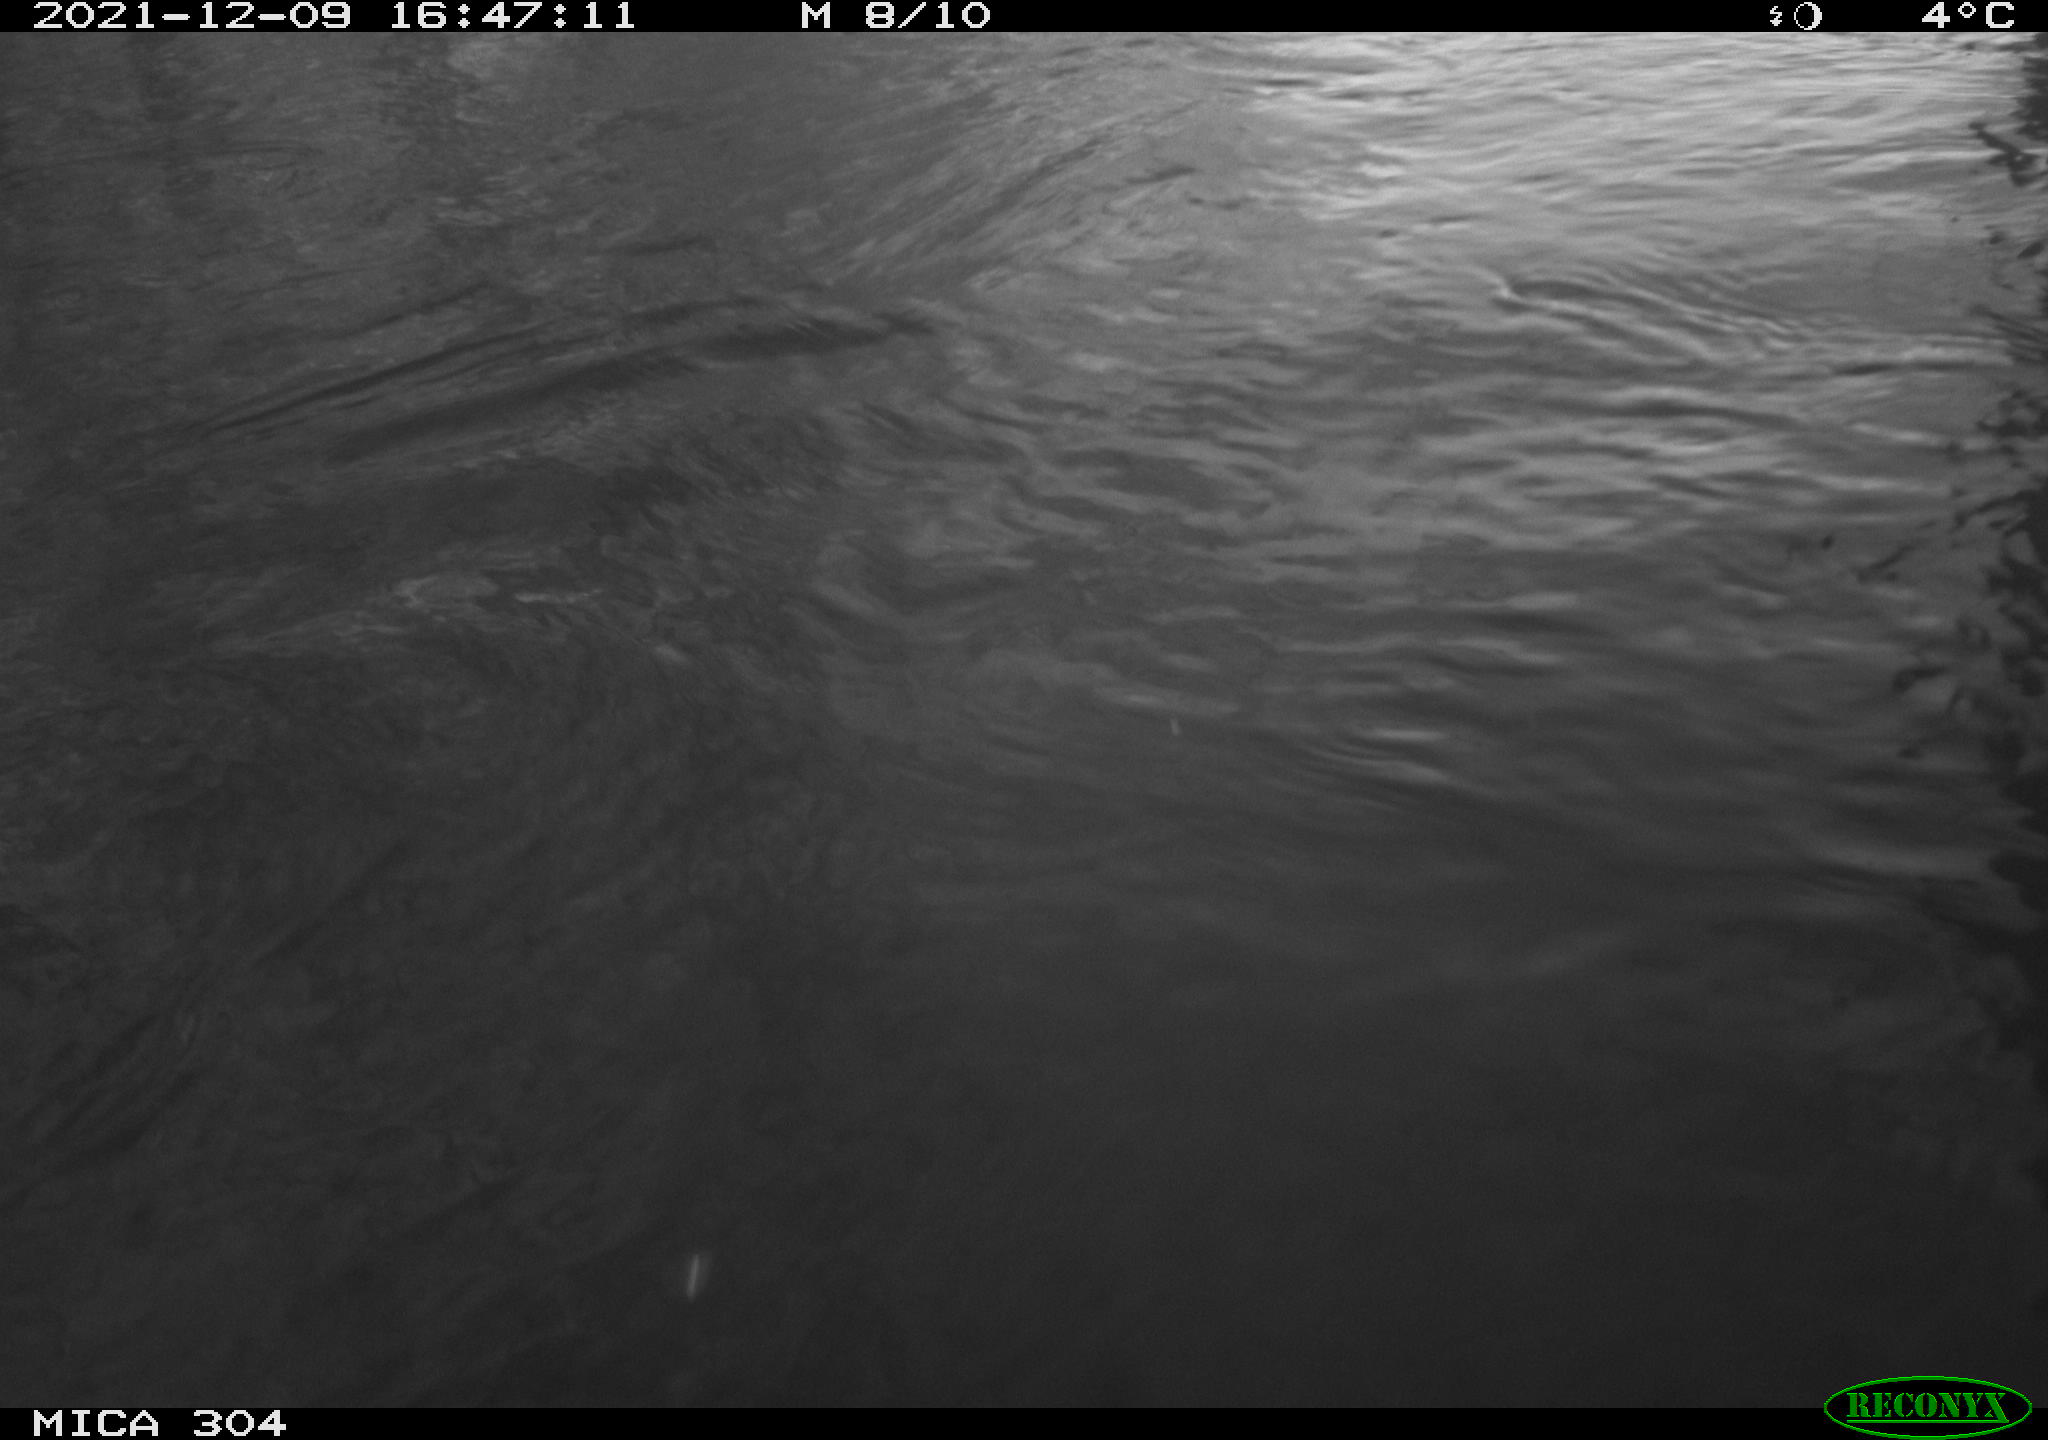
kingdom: Animalia
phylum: Chordata
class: Aves
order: Gruiformes
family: Rallidae
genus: Fulica
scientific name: Fulica atra
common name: Eurasian coot
